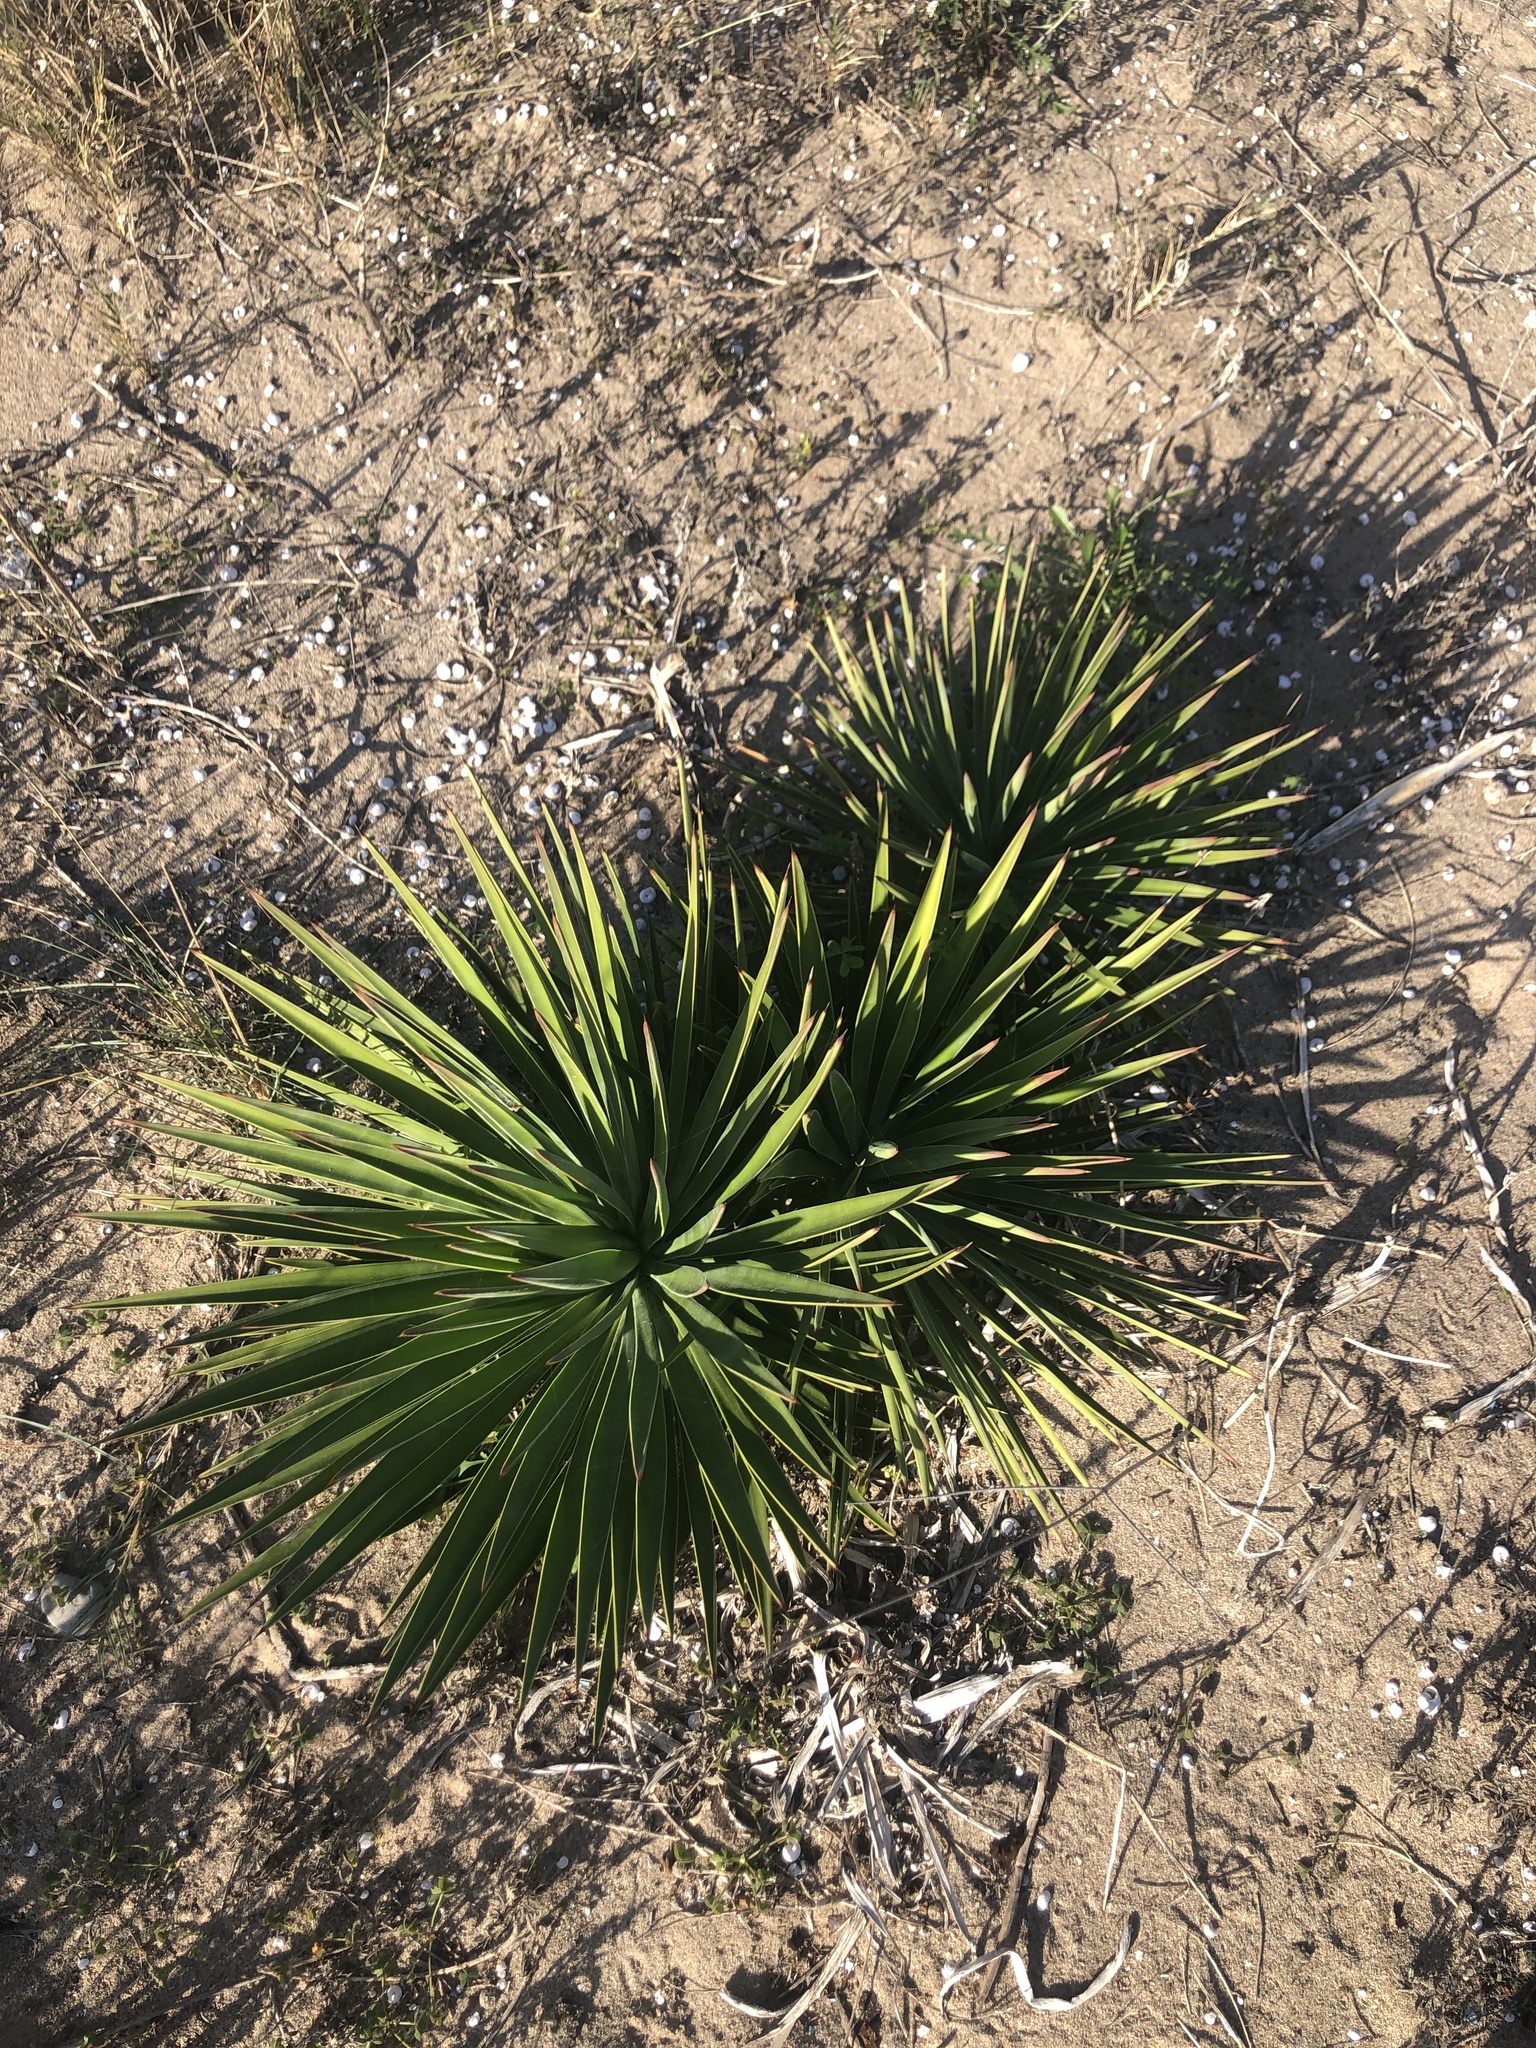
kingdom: Plantae
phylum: Tracheophyta
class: Liliopsida
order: Asparagales
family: Asparagaceae
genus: Yucca
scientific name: Yucca aloifolia
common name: Aloe yucca
